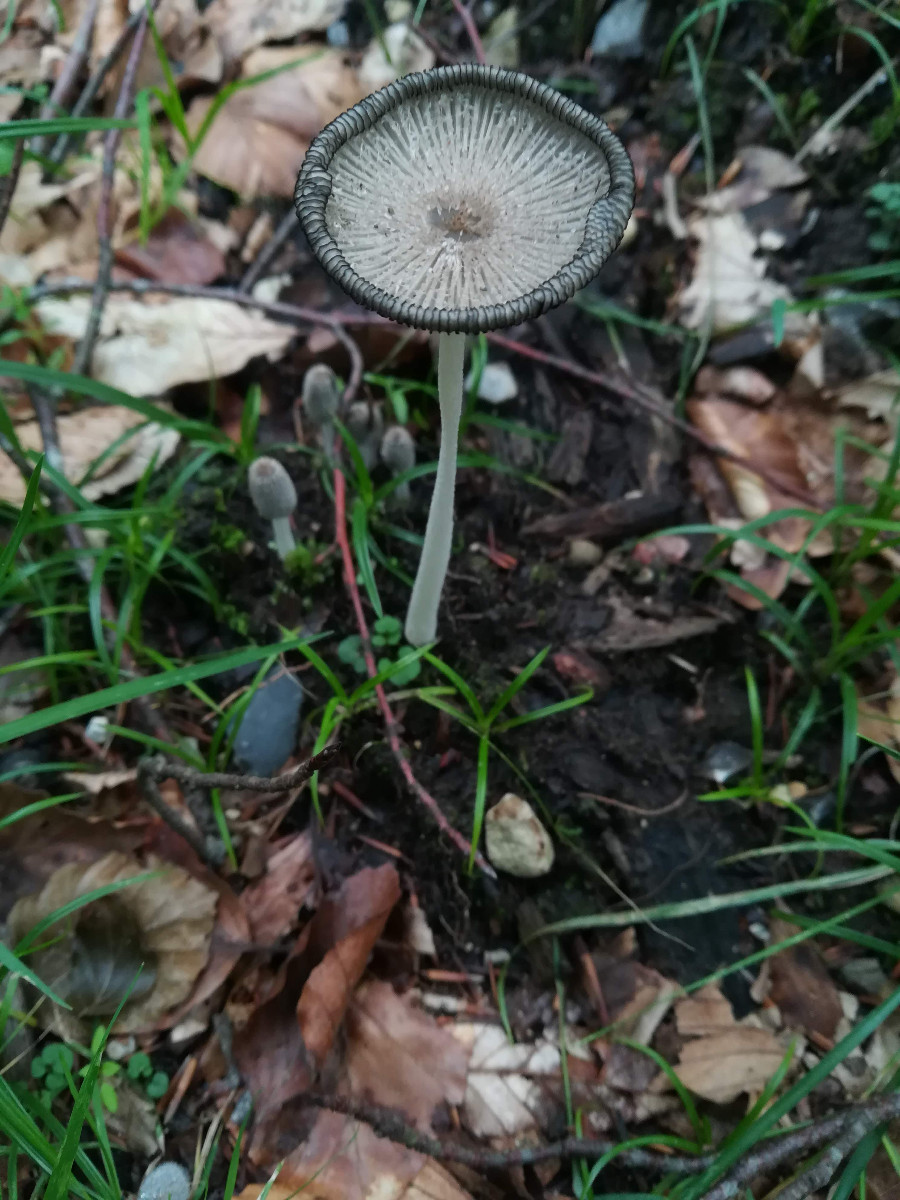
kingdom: Fungi
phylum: Basidiomycota
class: Agaricomycetes
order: Agaricales
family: Psathyrellaceae
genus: Coprinopsis
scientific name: Coprinopsis lagopus
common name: dunstokket blækhat
